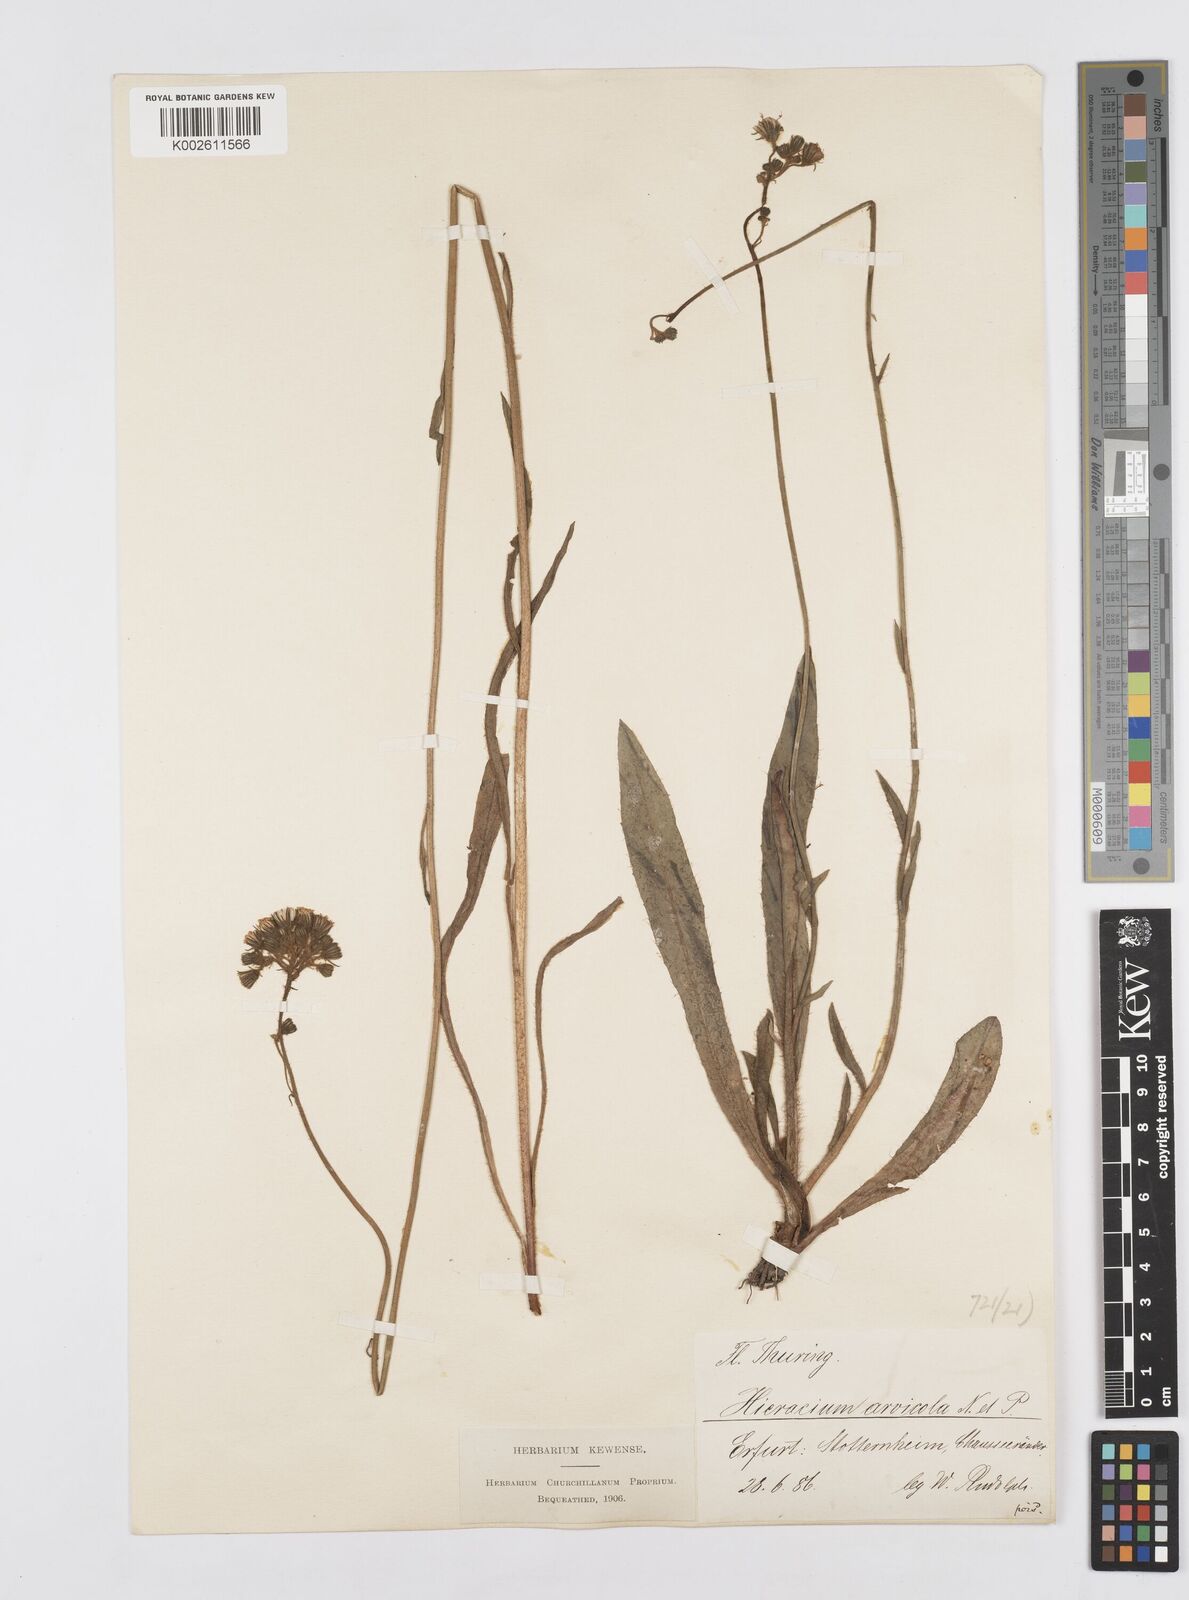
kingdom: Plantae
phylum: Tracheophyta
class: Magnoliopsida
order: Asterales
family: Asteraceae
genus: Pilosella
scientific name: Pilosella erythrochrista
